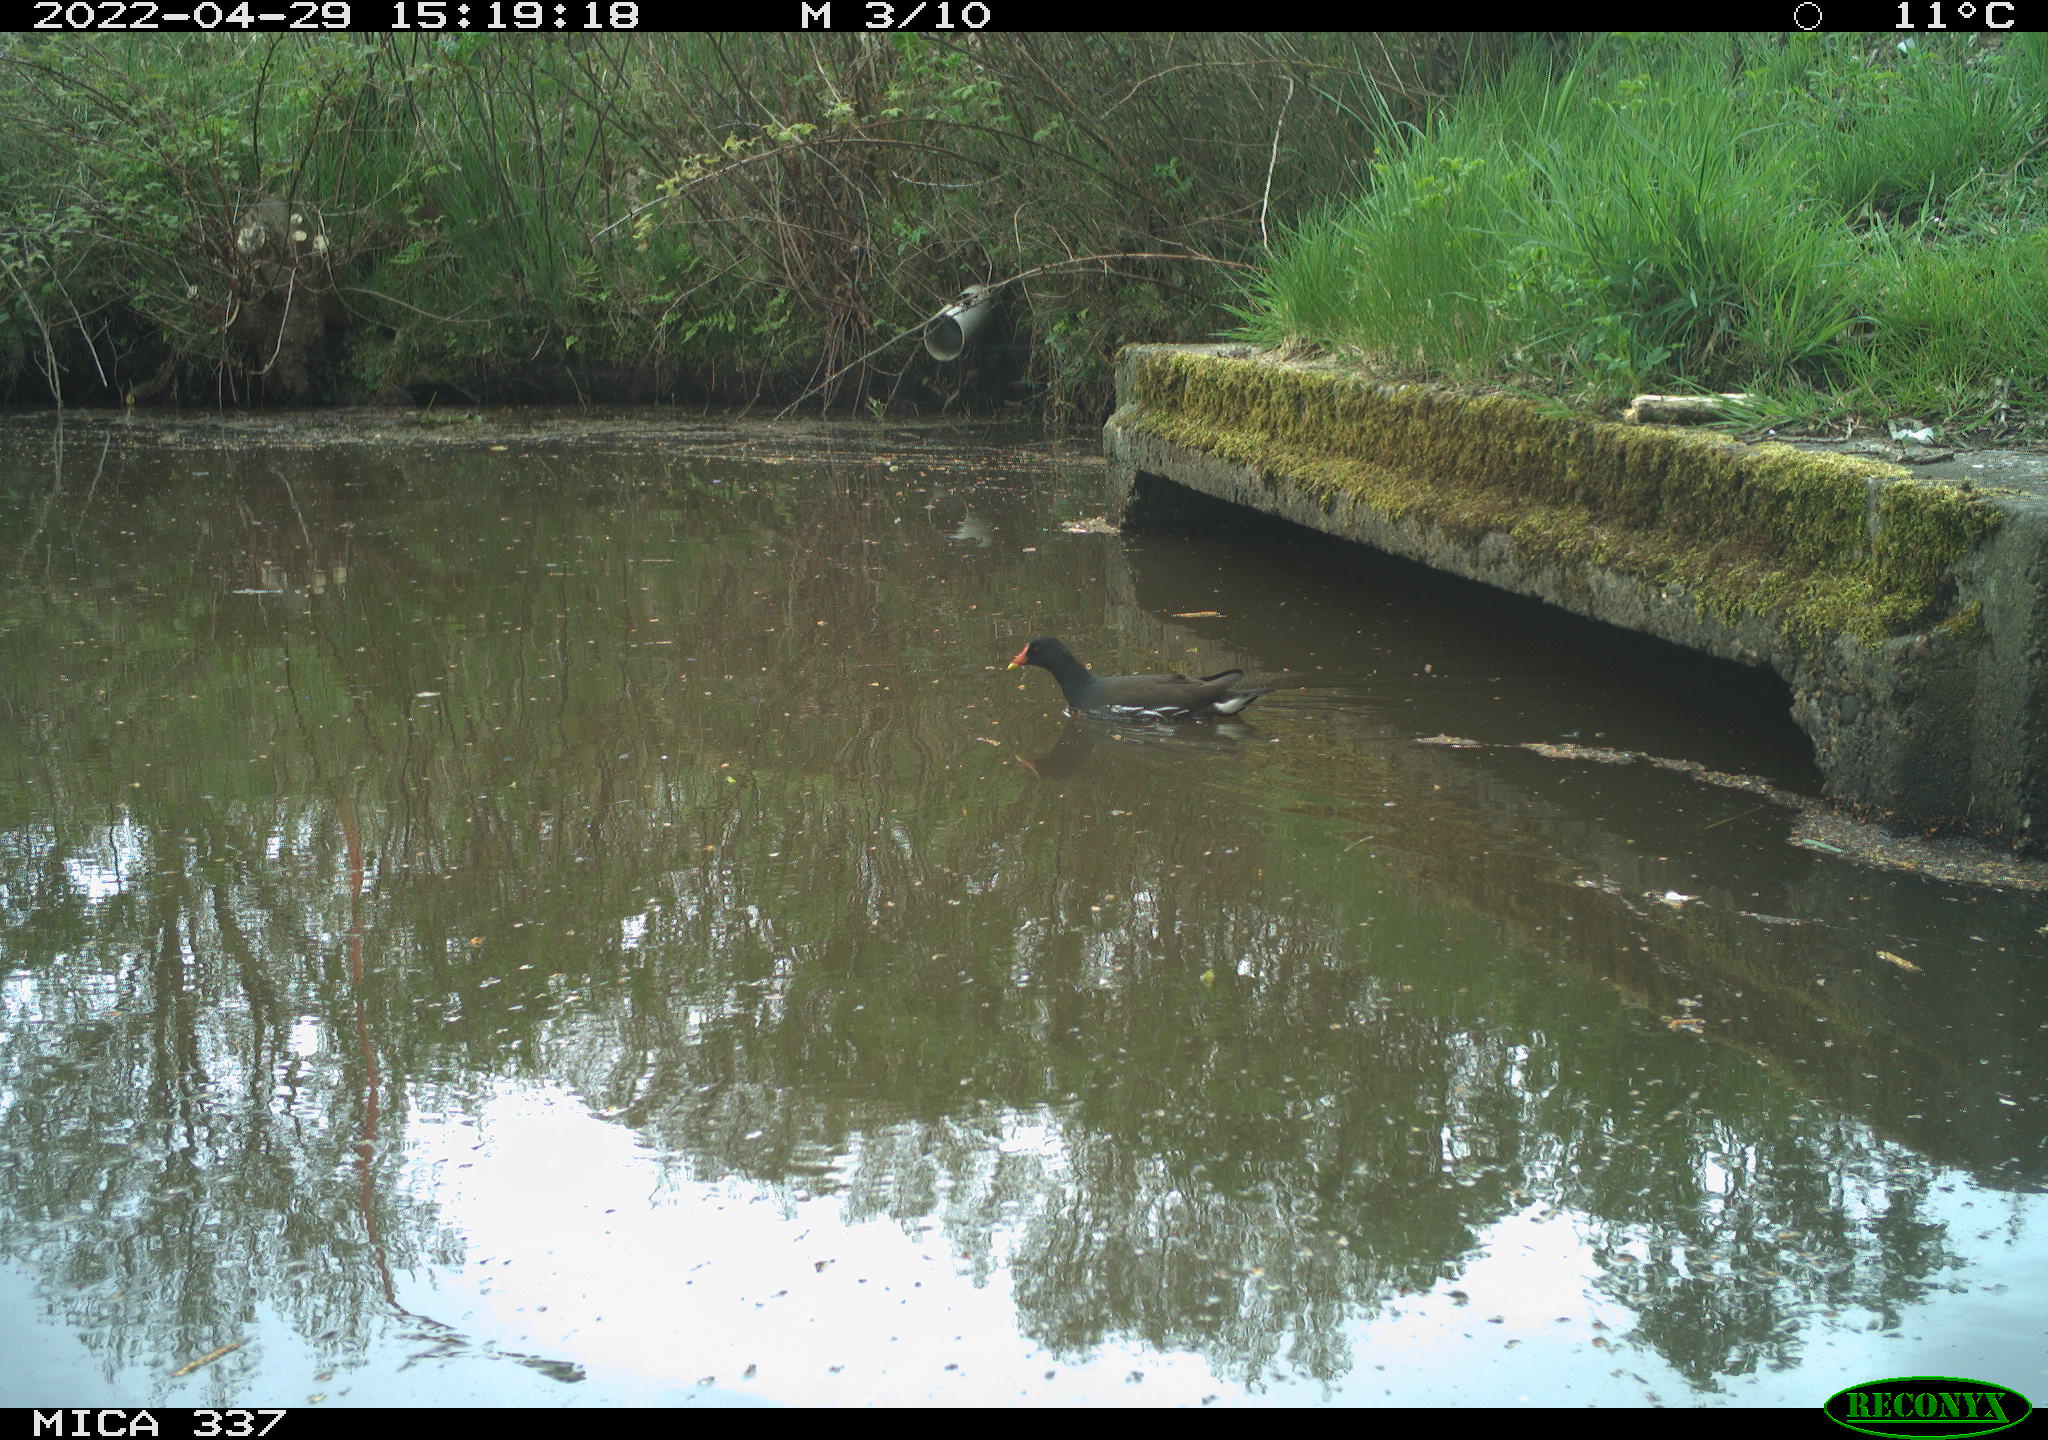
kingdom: Animalia
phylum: Chordata
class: Aves
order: Gruiformes
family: Rallidae
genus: Gallinula
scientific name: Gallinula chloropus
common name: Common moorhen
